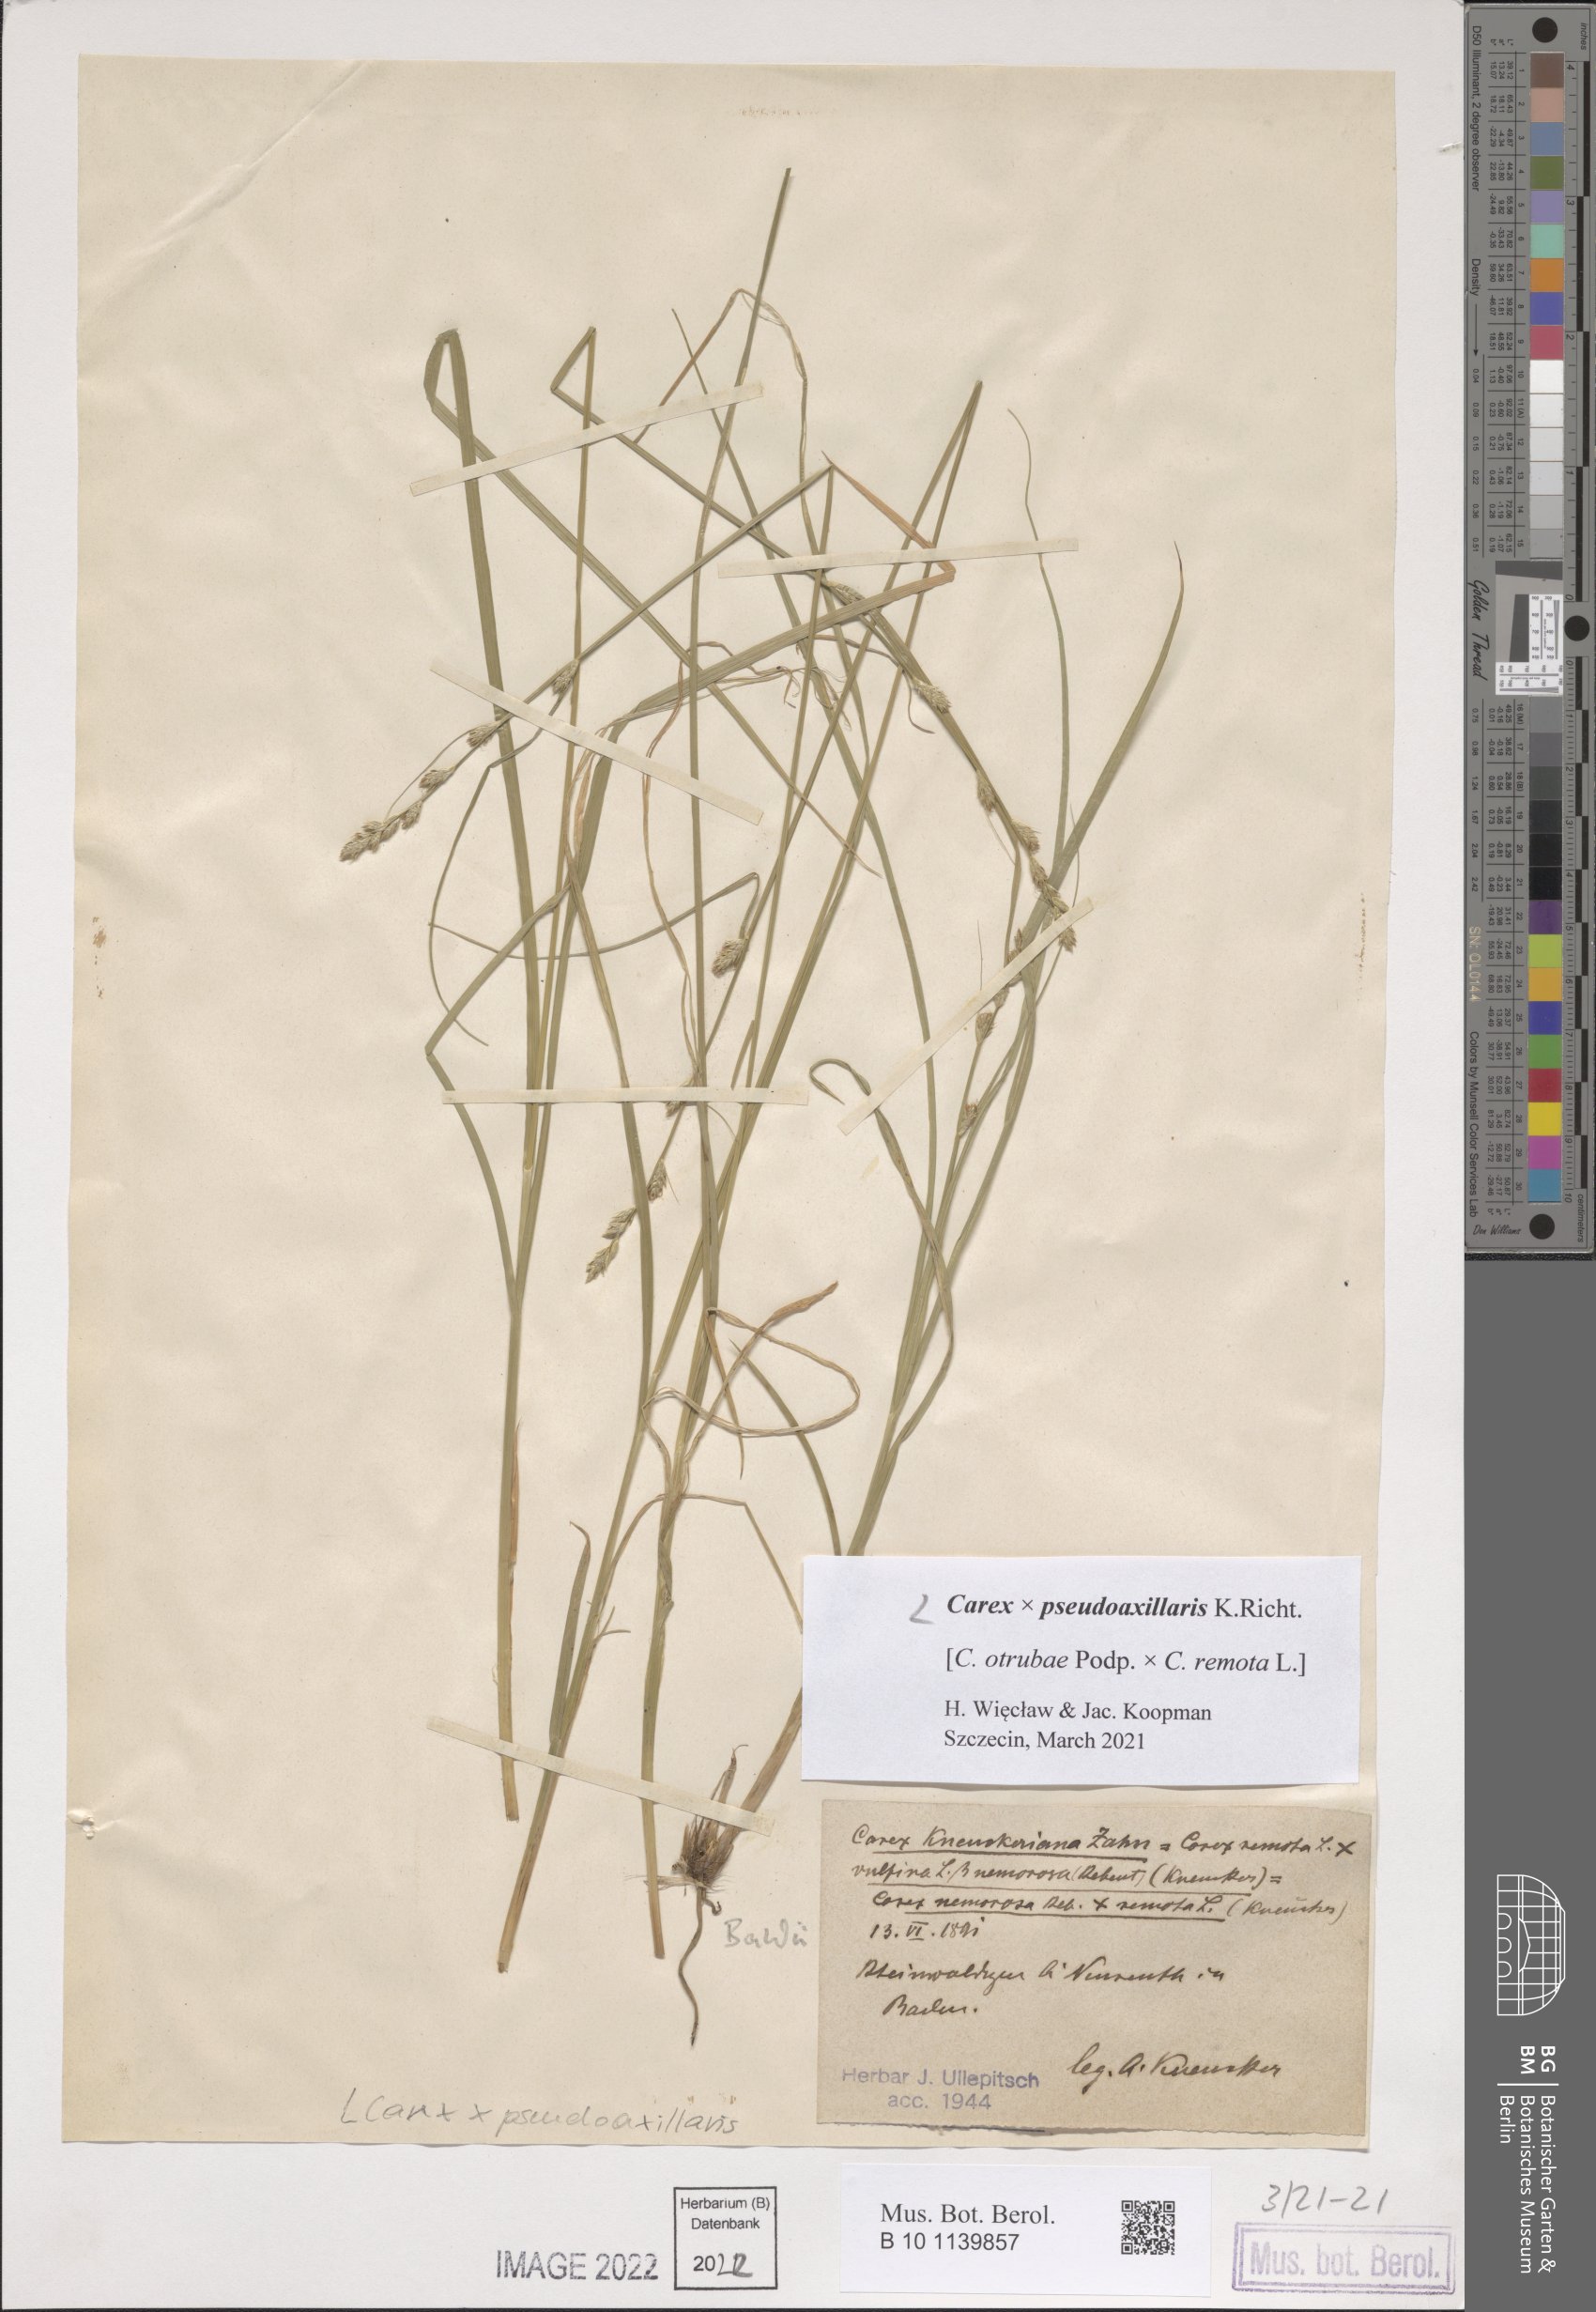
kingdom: Plantae
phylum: Tracheophyta
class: Liliopsida
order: Poales
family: Cyperaceae
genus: Carex
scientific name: Carex pseudoaxillaris
